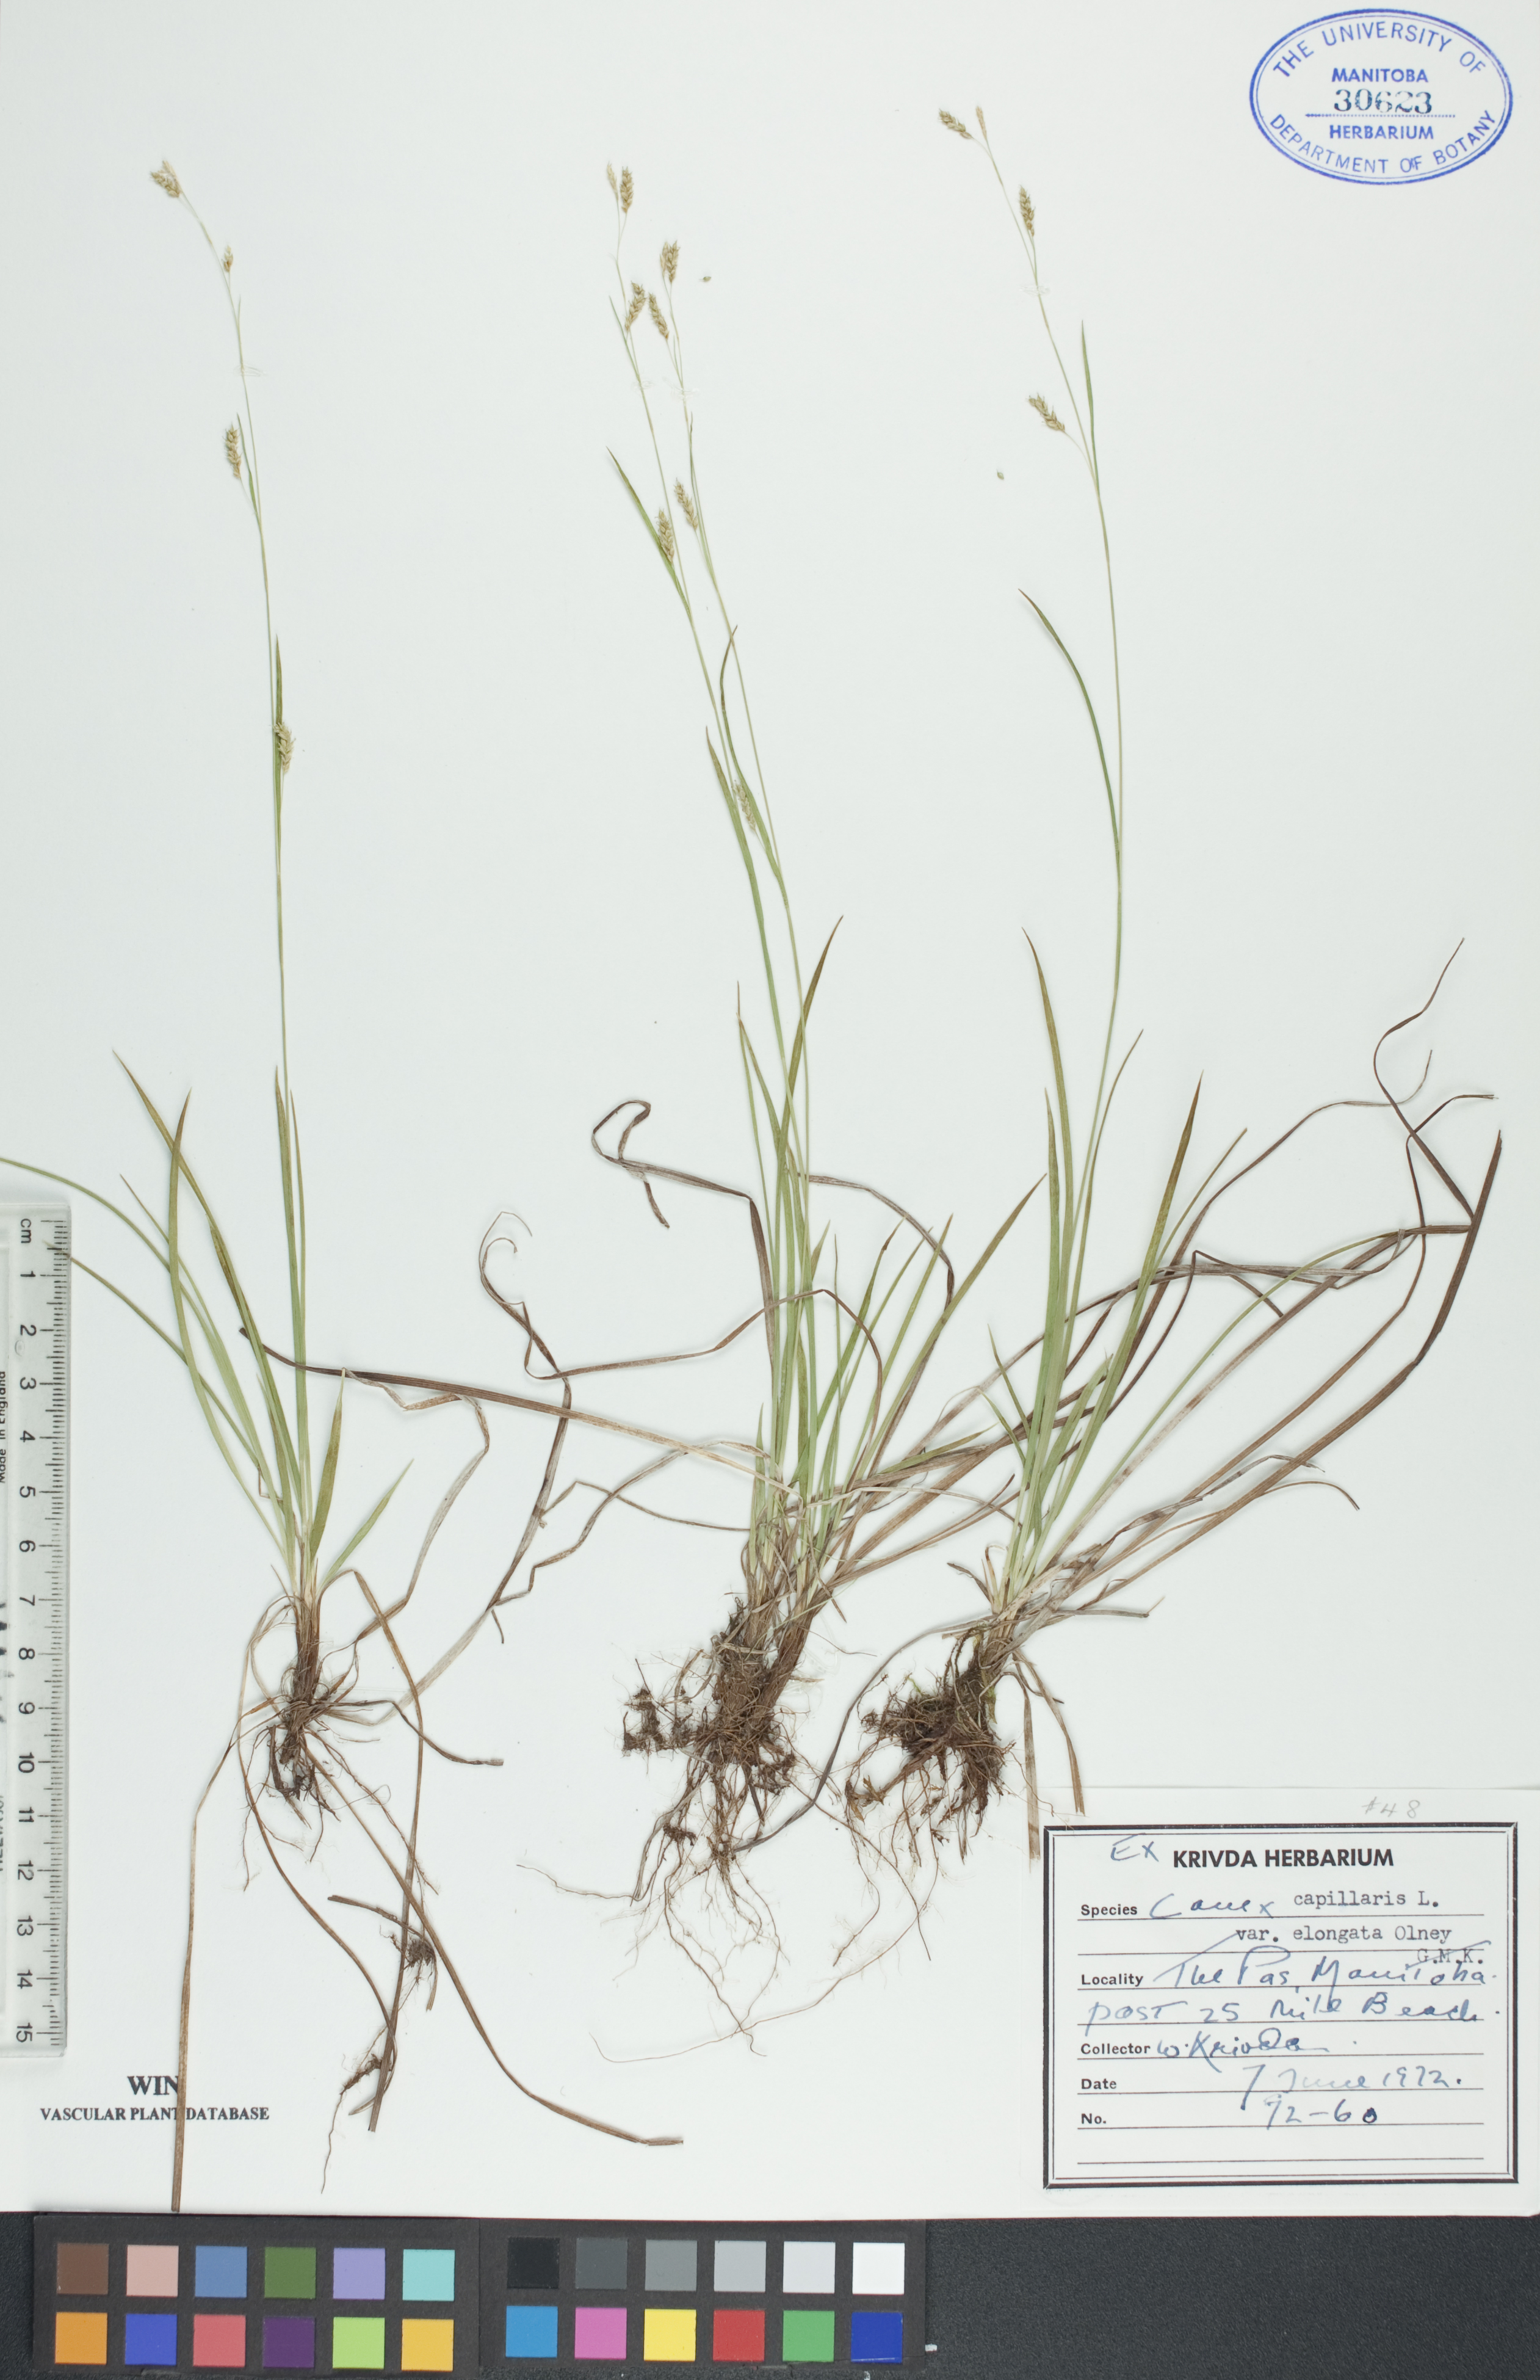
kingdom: Plantae
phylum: Tracheophyta
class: Liliopsida
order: Poales
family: Cyperaceae
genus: Carex
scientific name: Carex capillaris
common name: Hair sedge
